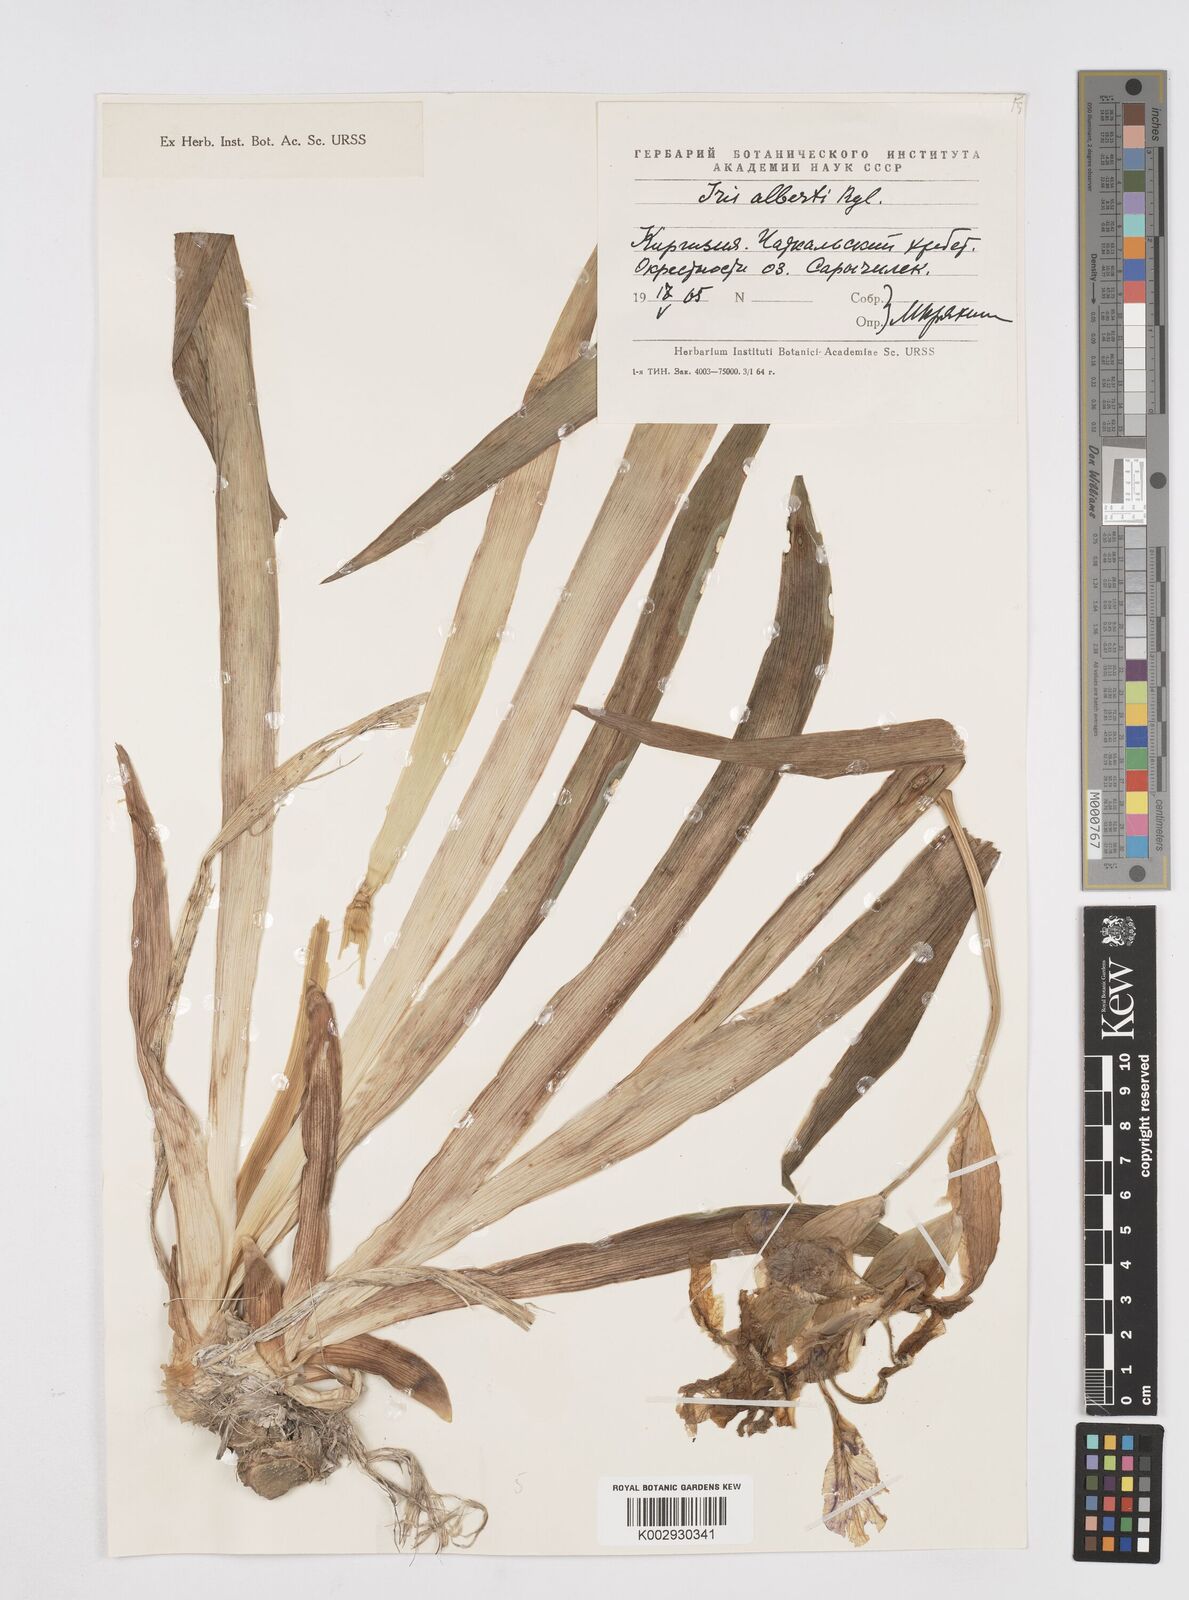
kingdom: Plantae
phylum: Tracheophyta
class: Liliopsida
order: Asparagales
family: Iridaceae
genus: Iris
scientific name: Iris alberti
